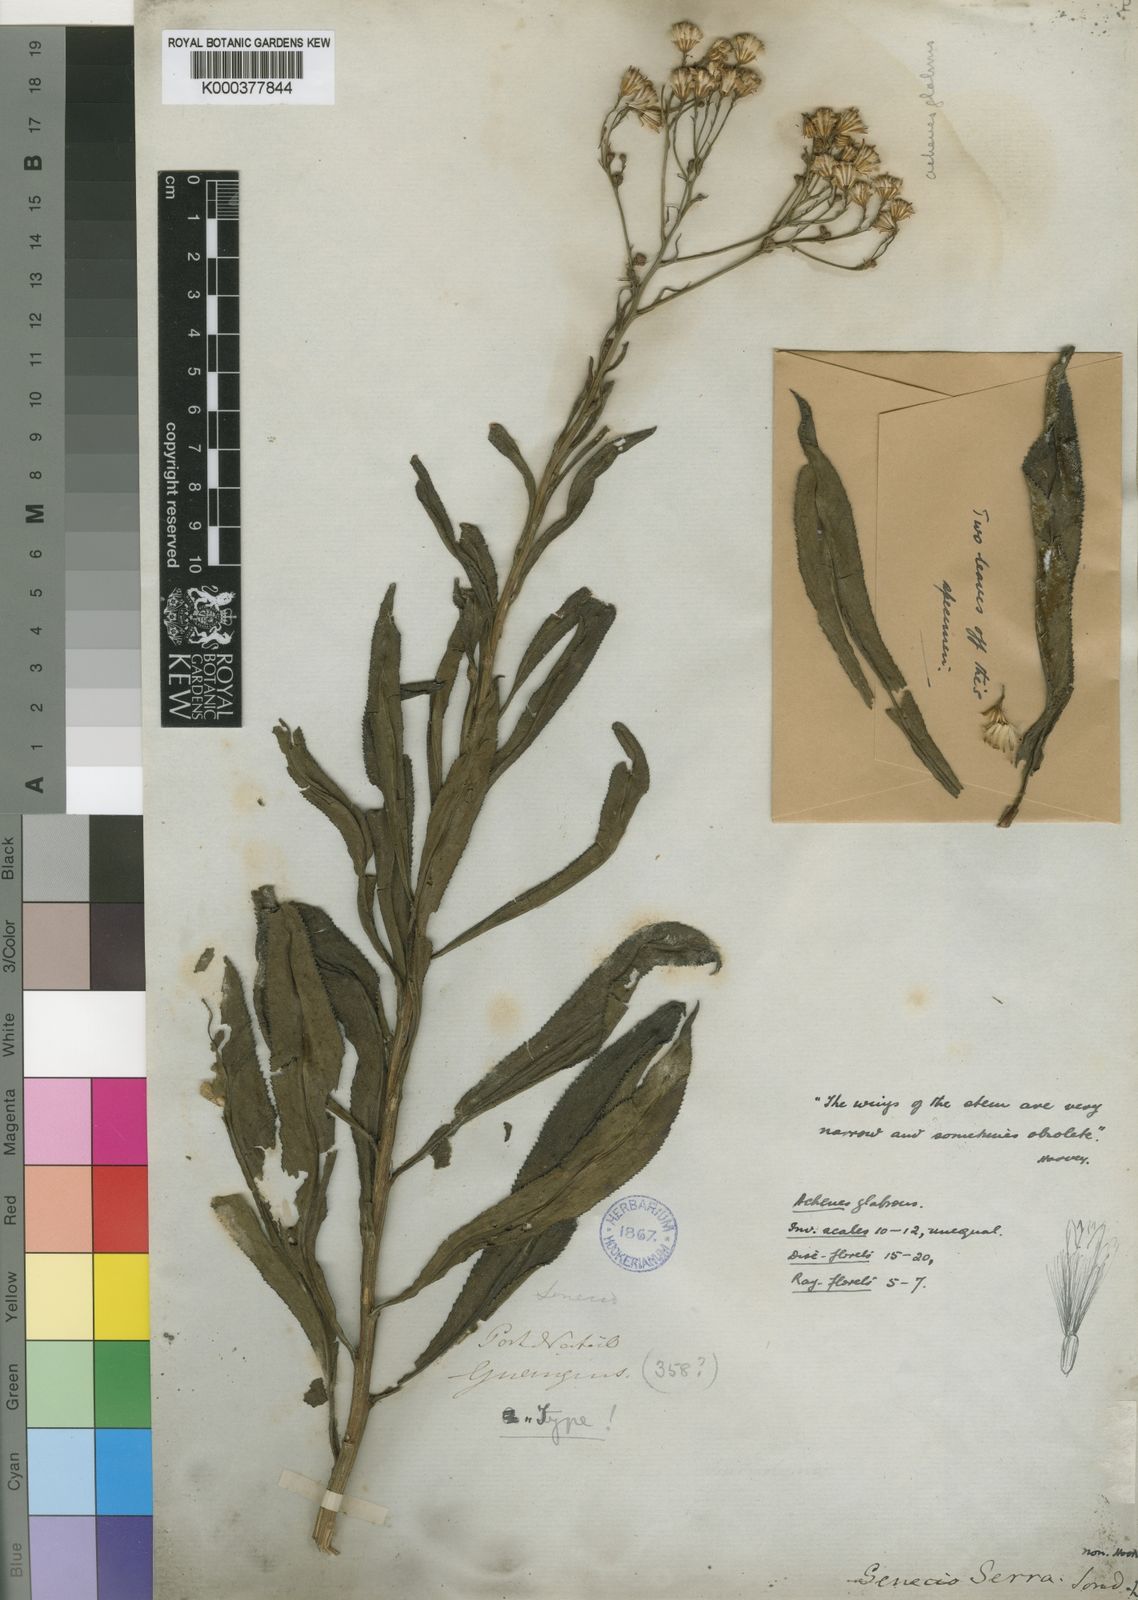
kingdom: Plantae
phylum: Tracheophyta
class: Magnoliopsida
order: Asterales
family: Asteraceae
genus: Senecio
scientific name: Senecio inornatus
